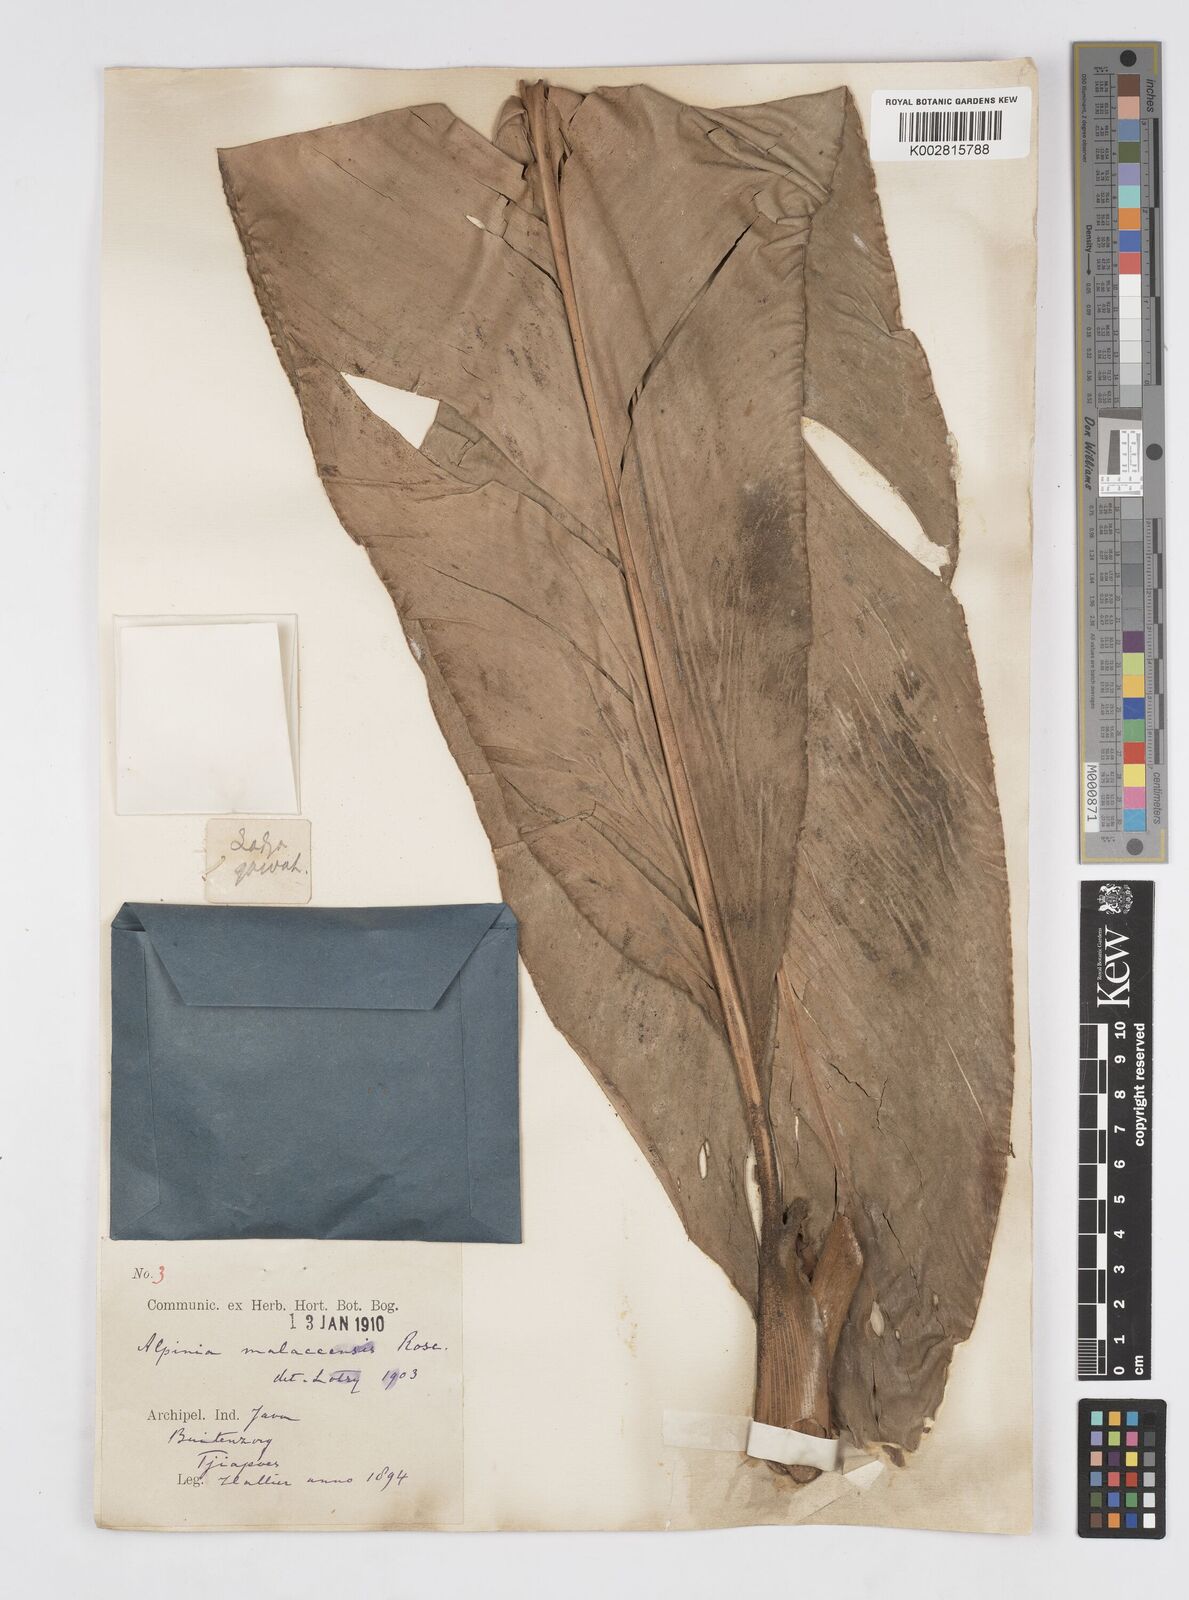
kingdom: Plantae
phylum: Tracheophyta
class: Liliopsida
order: Zingiberales
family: Zingiberaceae
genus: Alpinia
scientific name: Alpinia malaccensis
